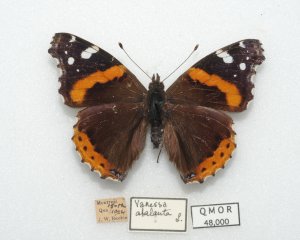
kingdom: Animalia
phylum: Arthropoda
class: Insecta
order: Lepidoptera
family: Nymphalidae
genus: Vanessa
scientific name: Vanessa atalanta
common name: Red Admiral
